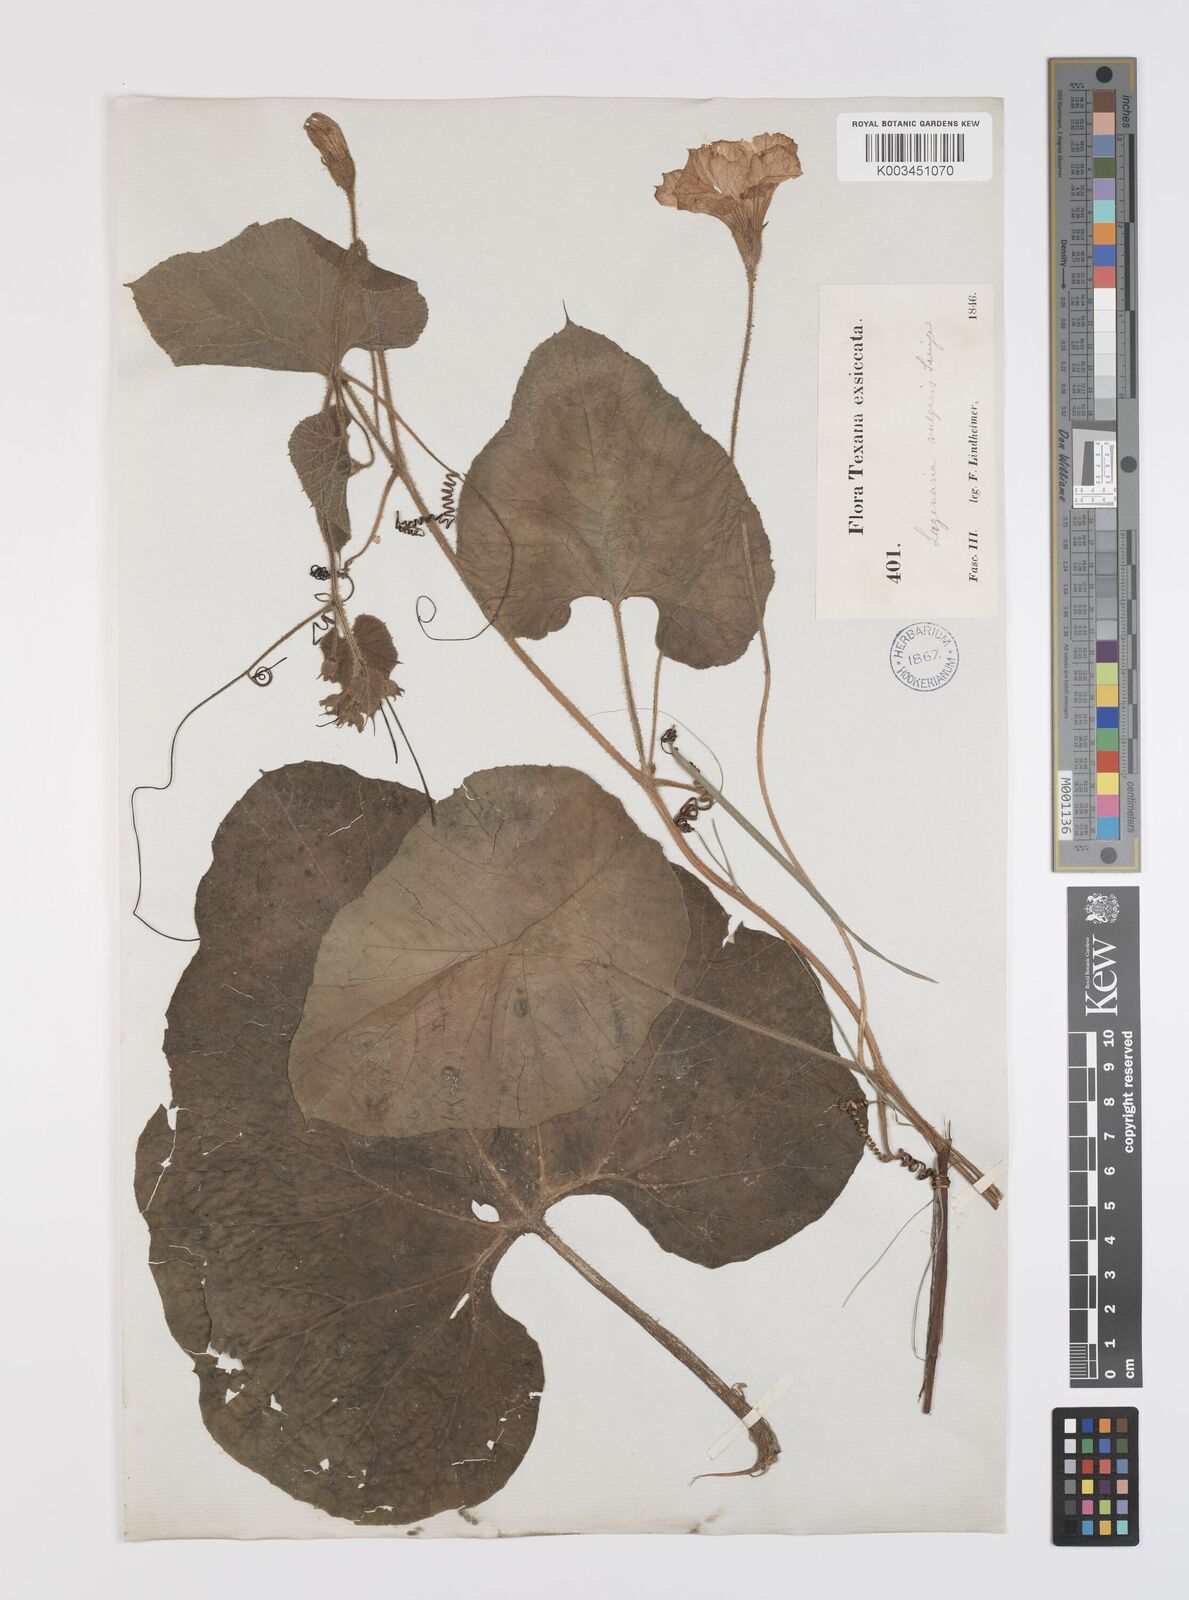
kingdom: Plantae
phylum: Tracheophyta
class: Magnoliopsida
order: Cucurbitales
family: Cucurbitaceae
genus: Lagenaria
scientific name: Lagenaria siceraria
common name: Bottle gourd
